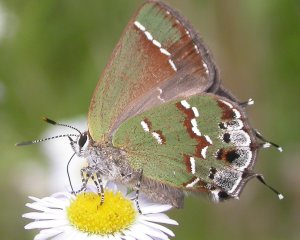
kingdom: Animalia
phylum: Arthropoda
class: Insecta
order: Lepidoptera
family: Lycaenidae
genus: Mitoura
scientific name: Mitoura gryneus
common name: Juniper Hairstreak
